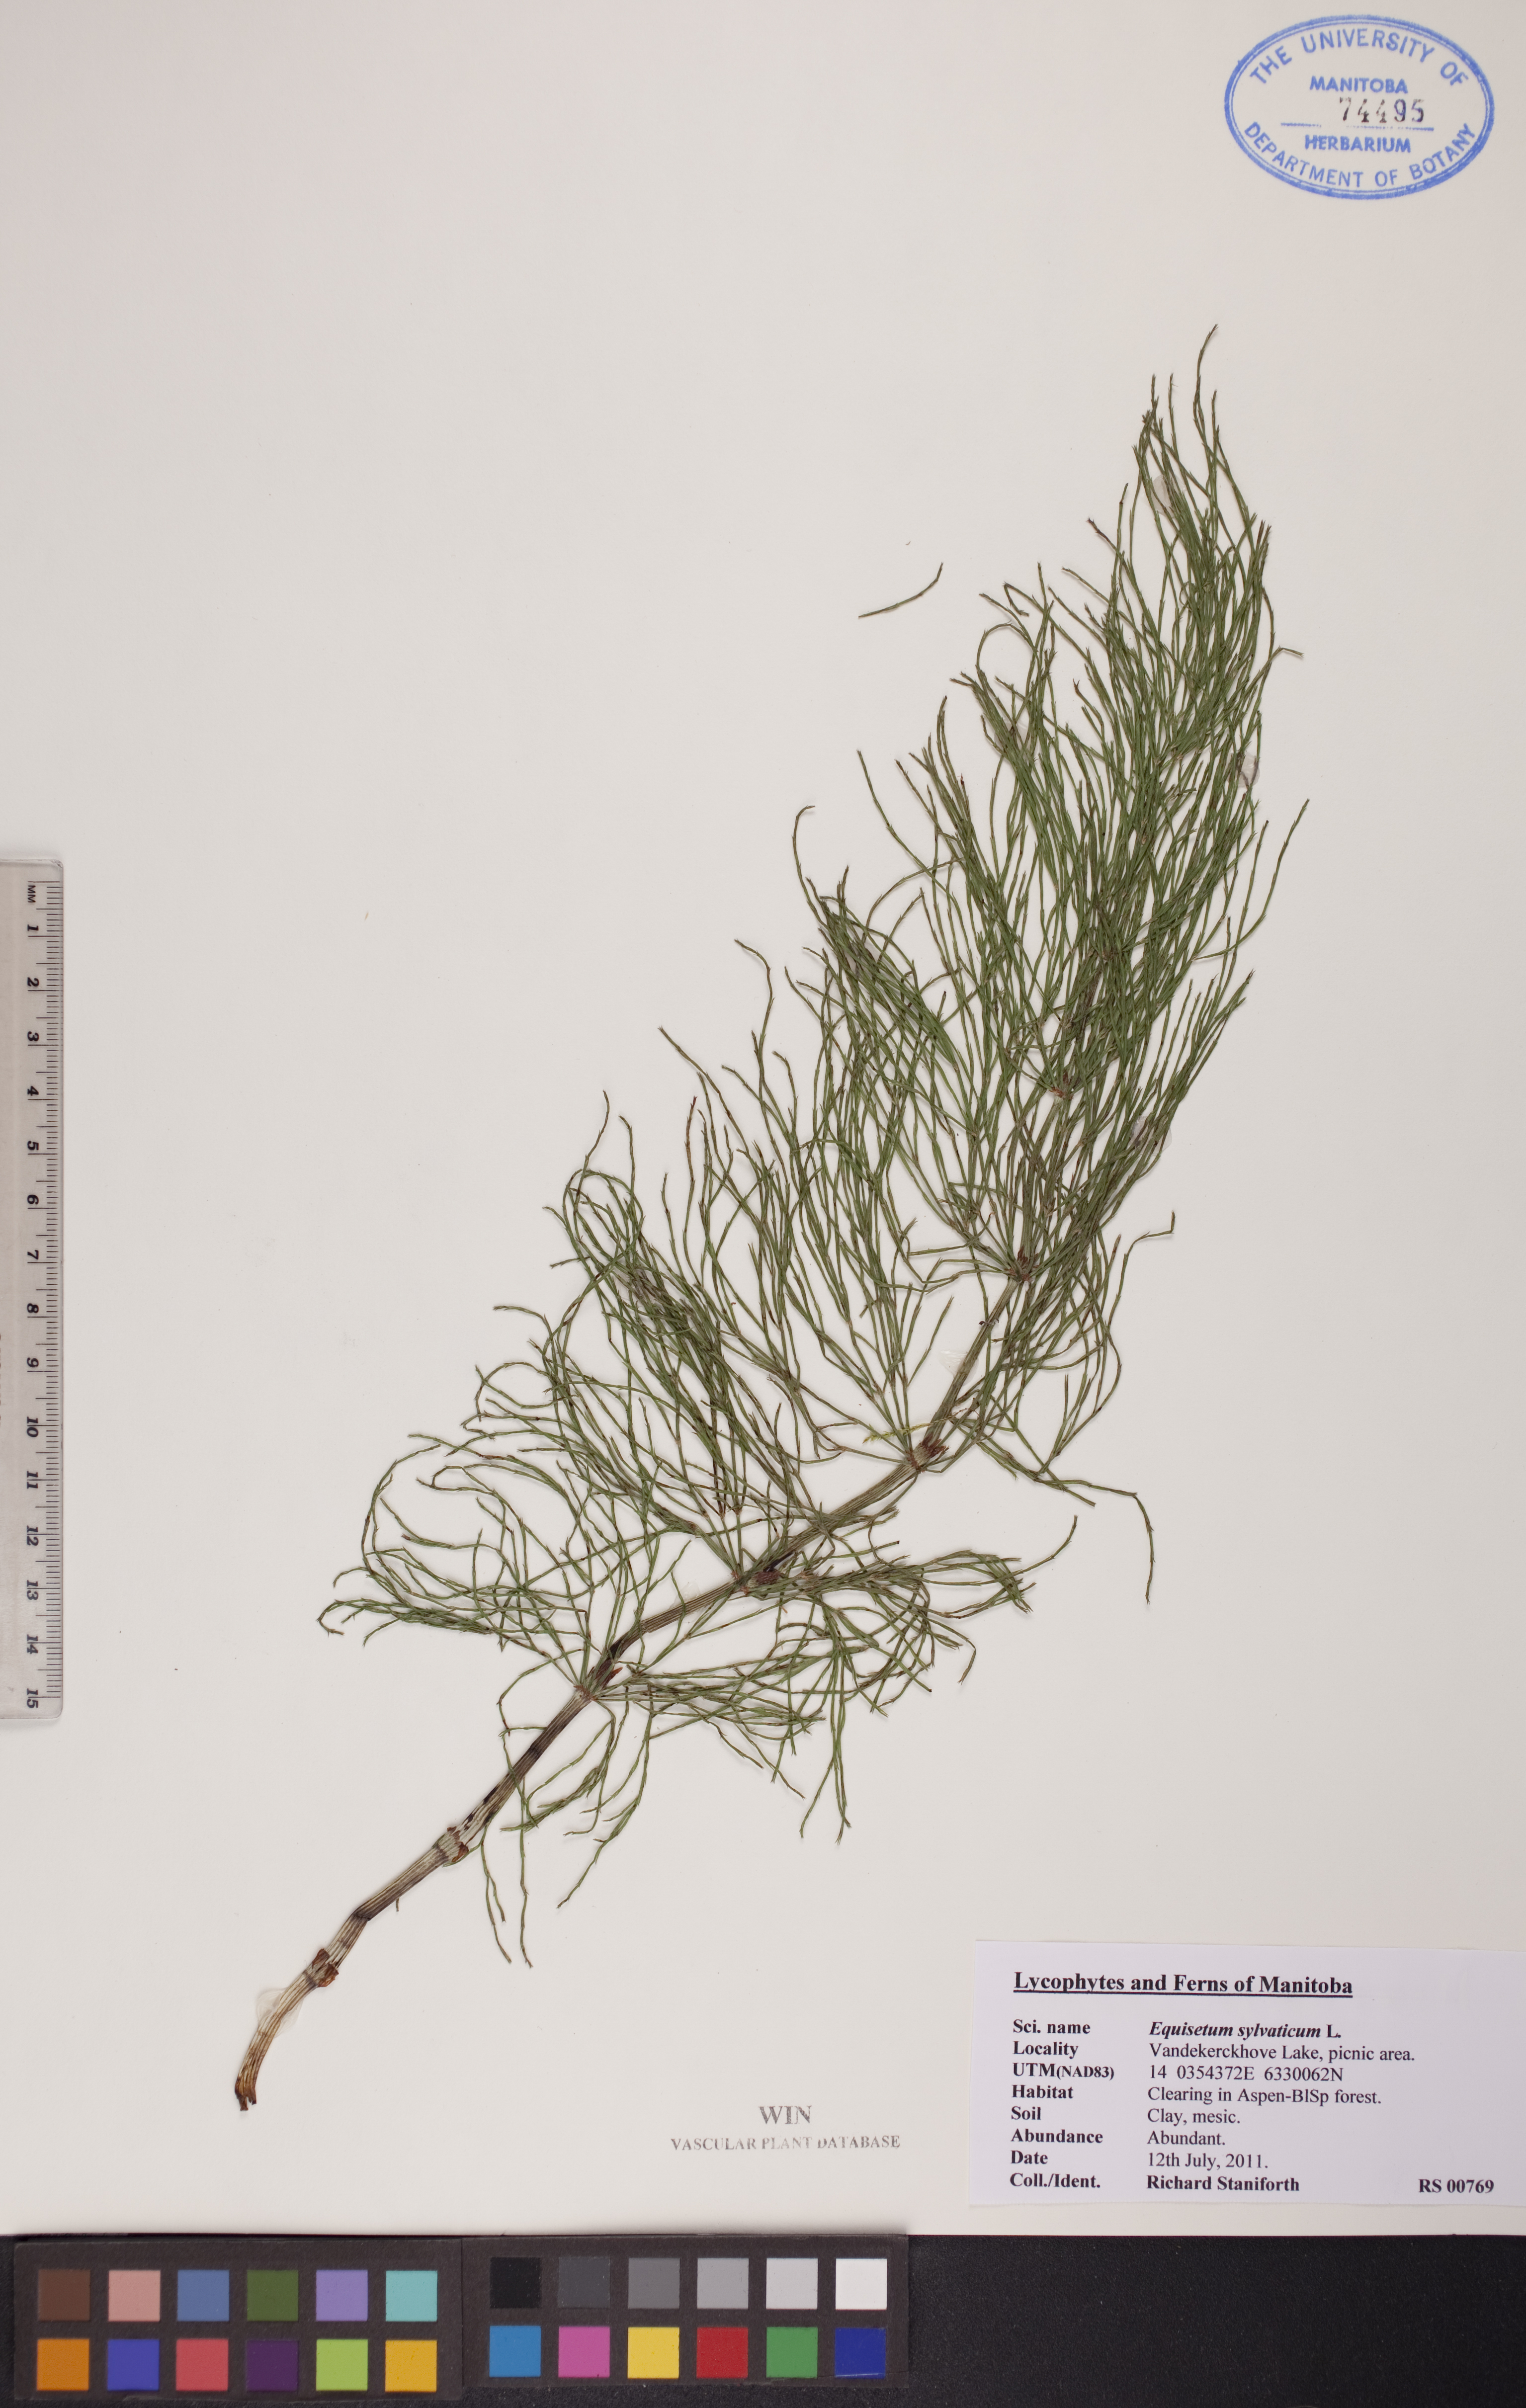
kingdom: Plantae
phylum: Tracheophyta
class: Polypodiopsida
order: Equisetales
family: Equisetaceae
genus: Equisetum
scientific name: Equisetum sylvaticum
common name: Wood horsetail
